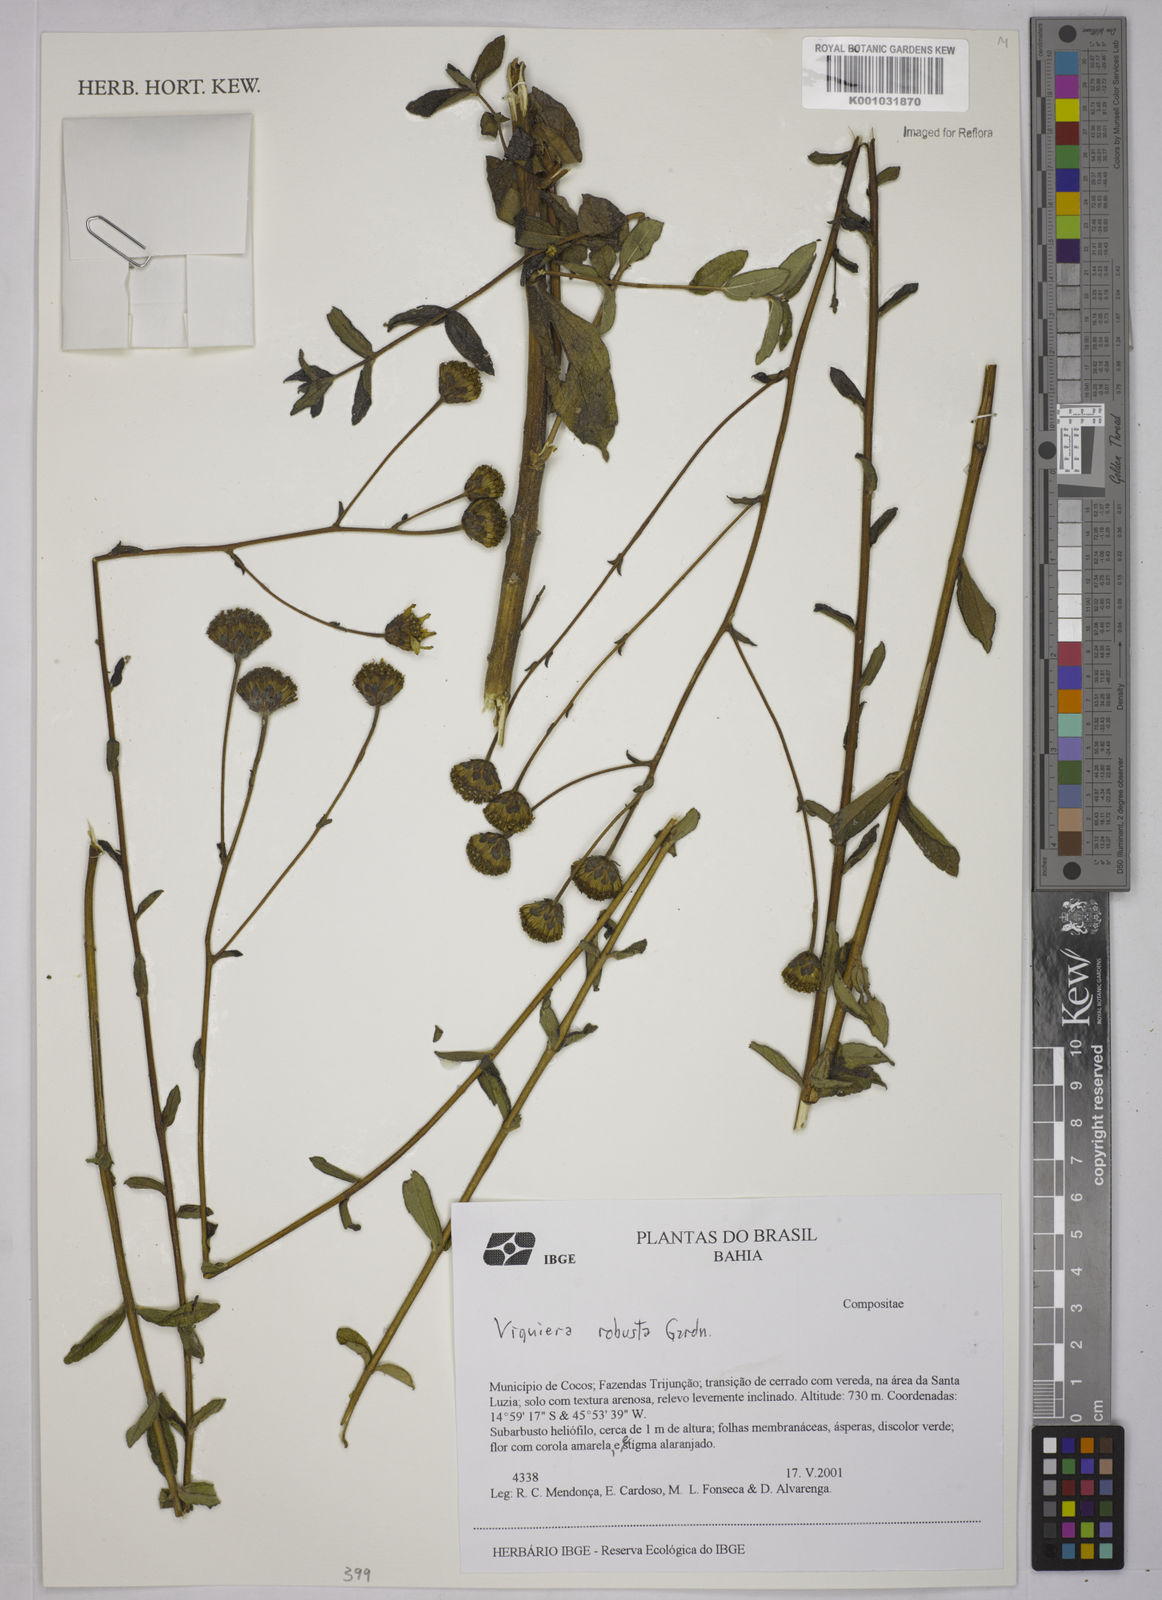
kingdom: Plantae
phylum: Tracheophyta
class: Magnoliopsida
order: Asterales
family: Asteraceae
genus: Aldama
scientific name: Aldama robusta
